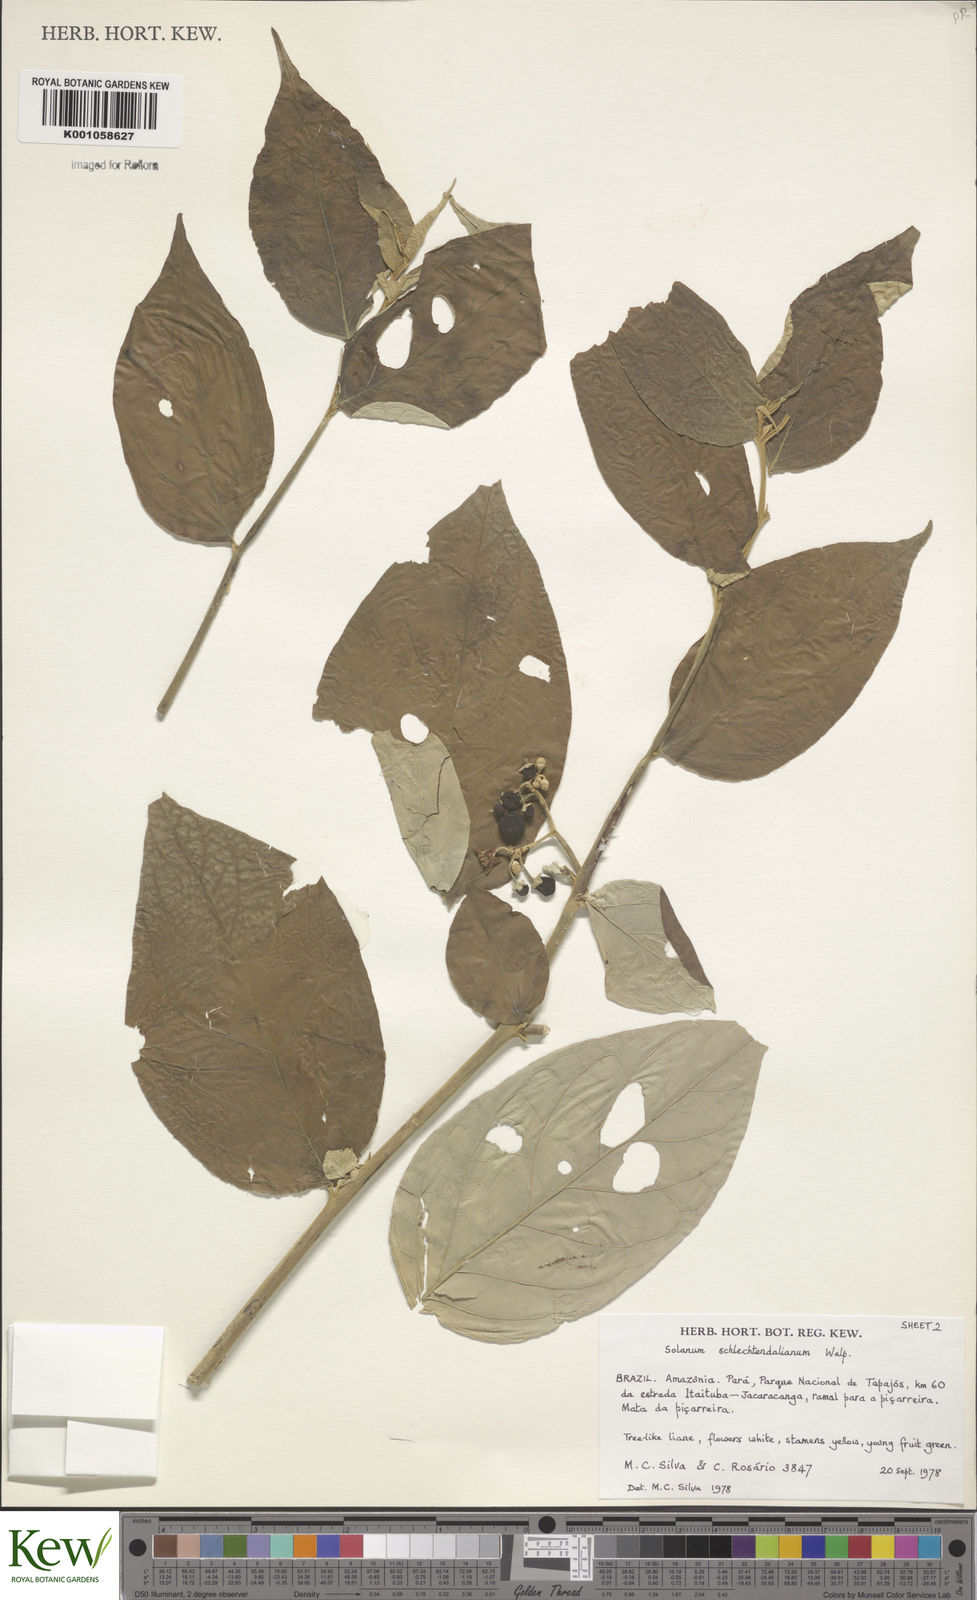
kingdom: Plantae
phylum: Tracheophyta
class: Magnoliopsida
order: Solanales
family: Solanaceae
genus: Solanum
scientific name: Solanum schlechtendalianum
